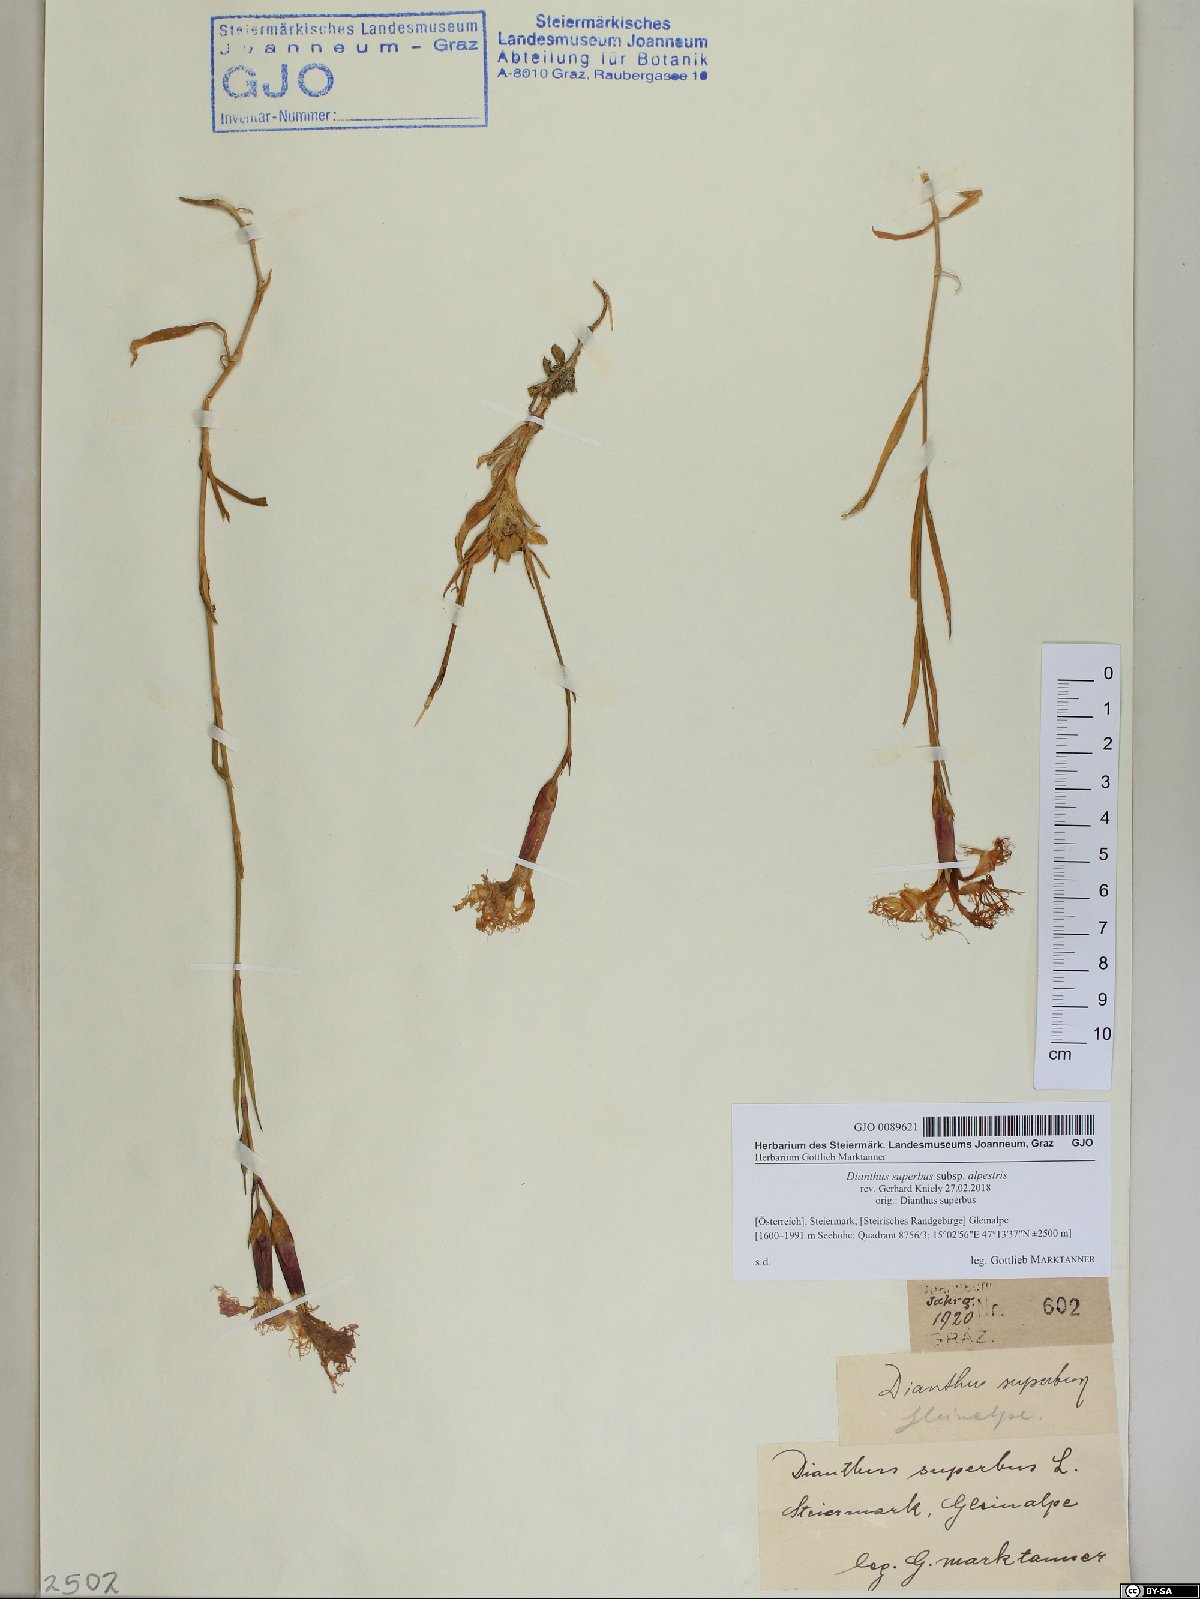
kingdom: Plantae
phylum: Tracheophyta
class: Magnoliopsida
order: Caryophyllales
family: Caryophyllaceae
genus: Dianthus
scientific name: Dianthus superbus
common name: Fringed pink
